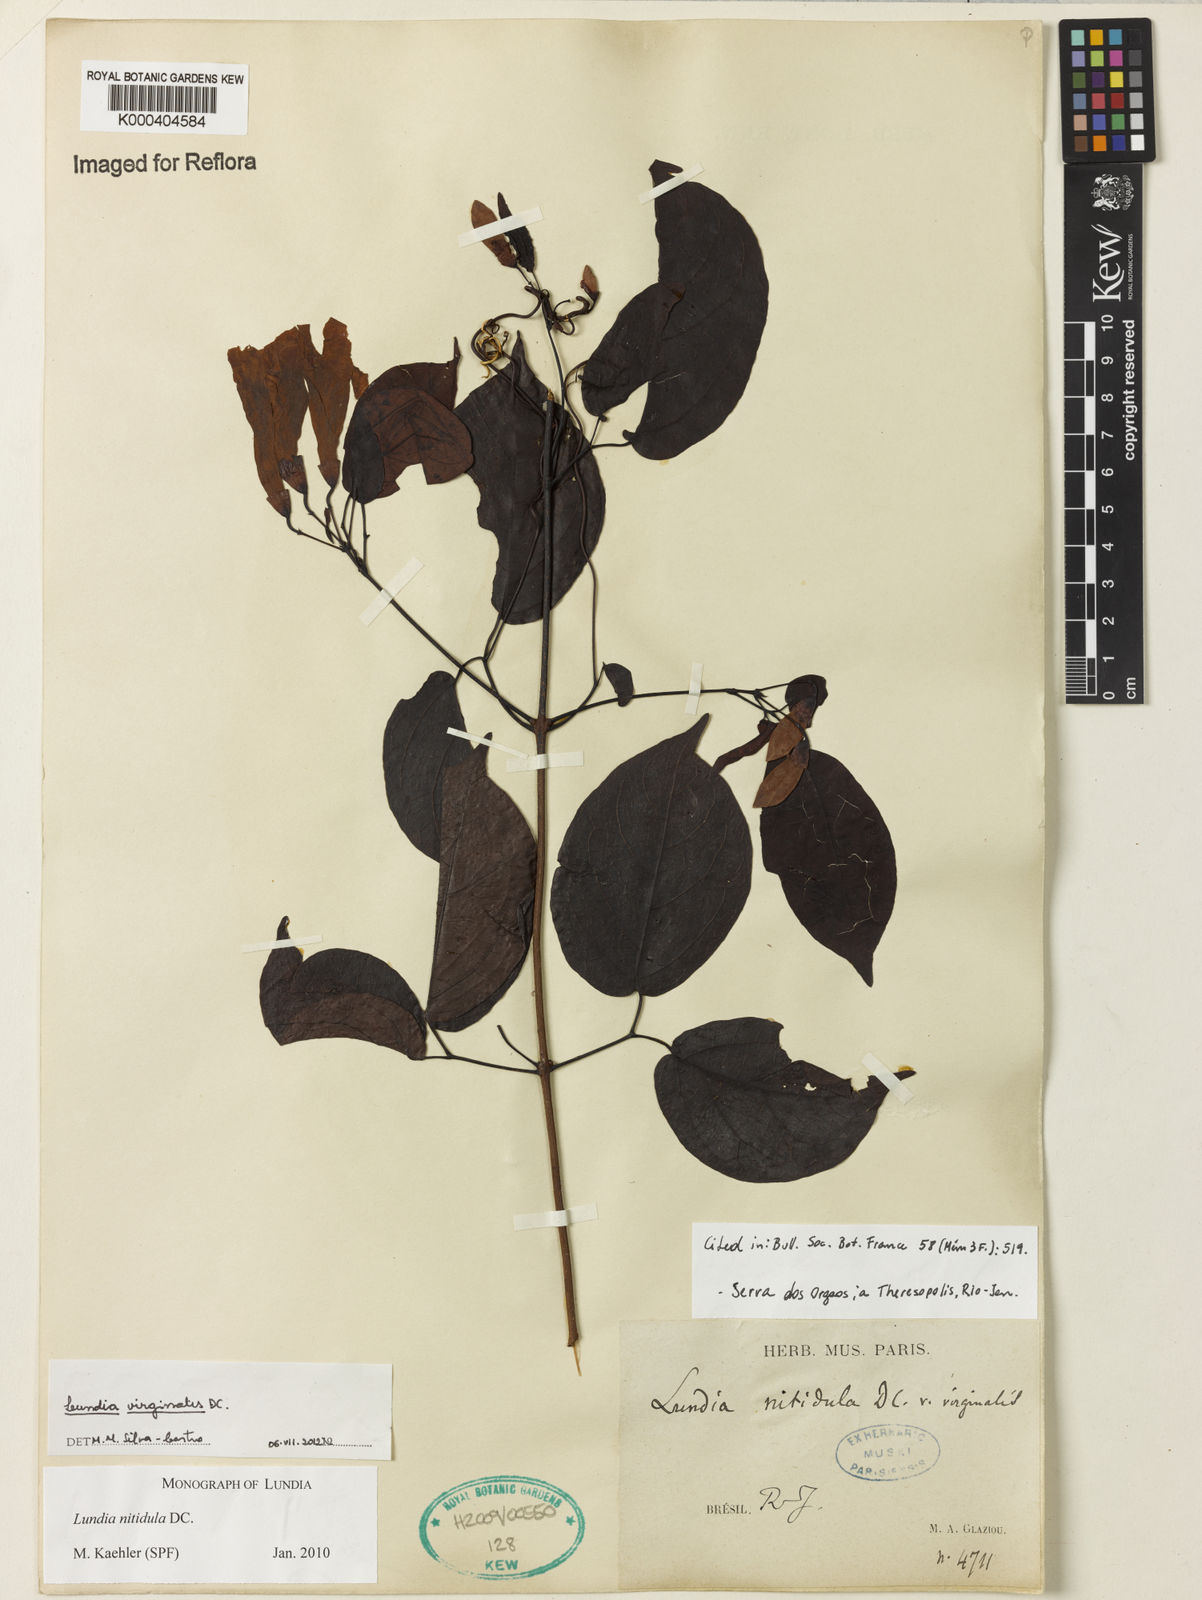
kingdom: Plantae
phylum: Tracheophyta
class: Magnoliopsida
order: Lamiales
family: Bignoniaceae
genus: Lundia
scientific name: Lundia virginalis
